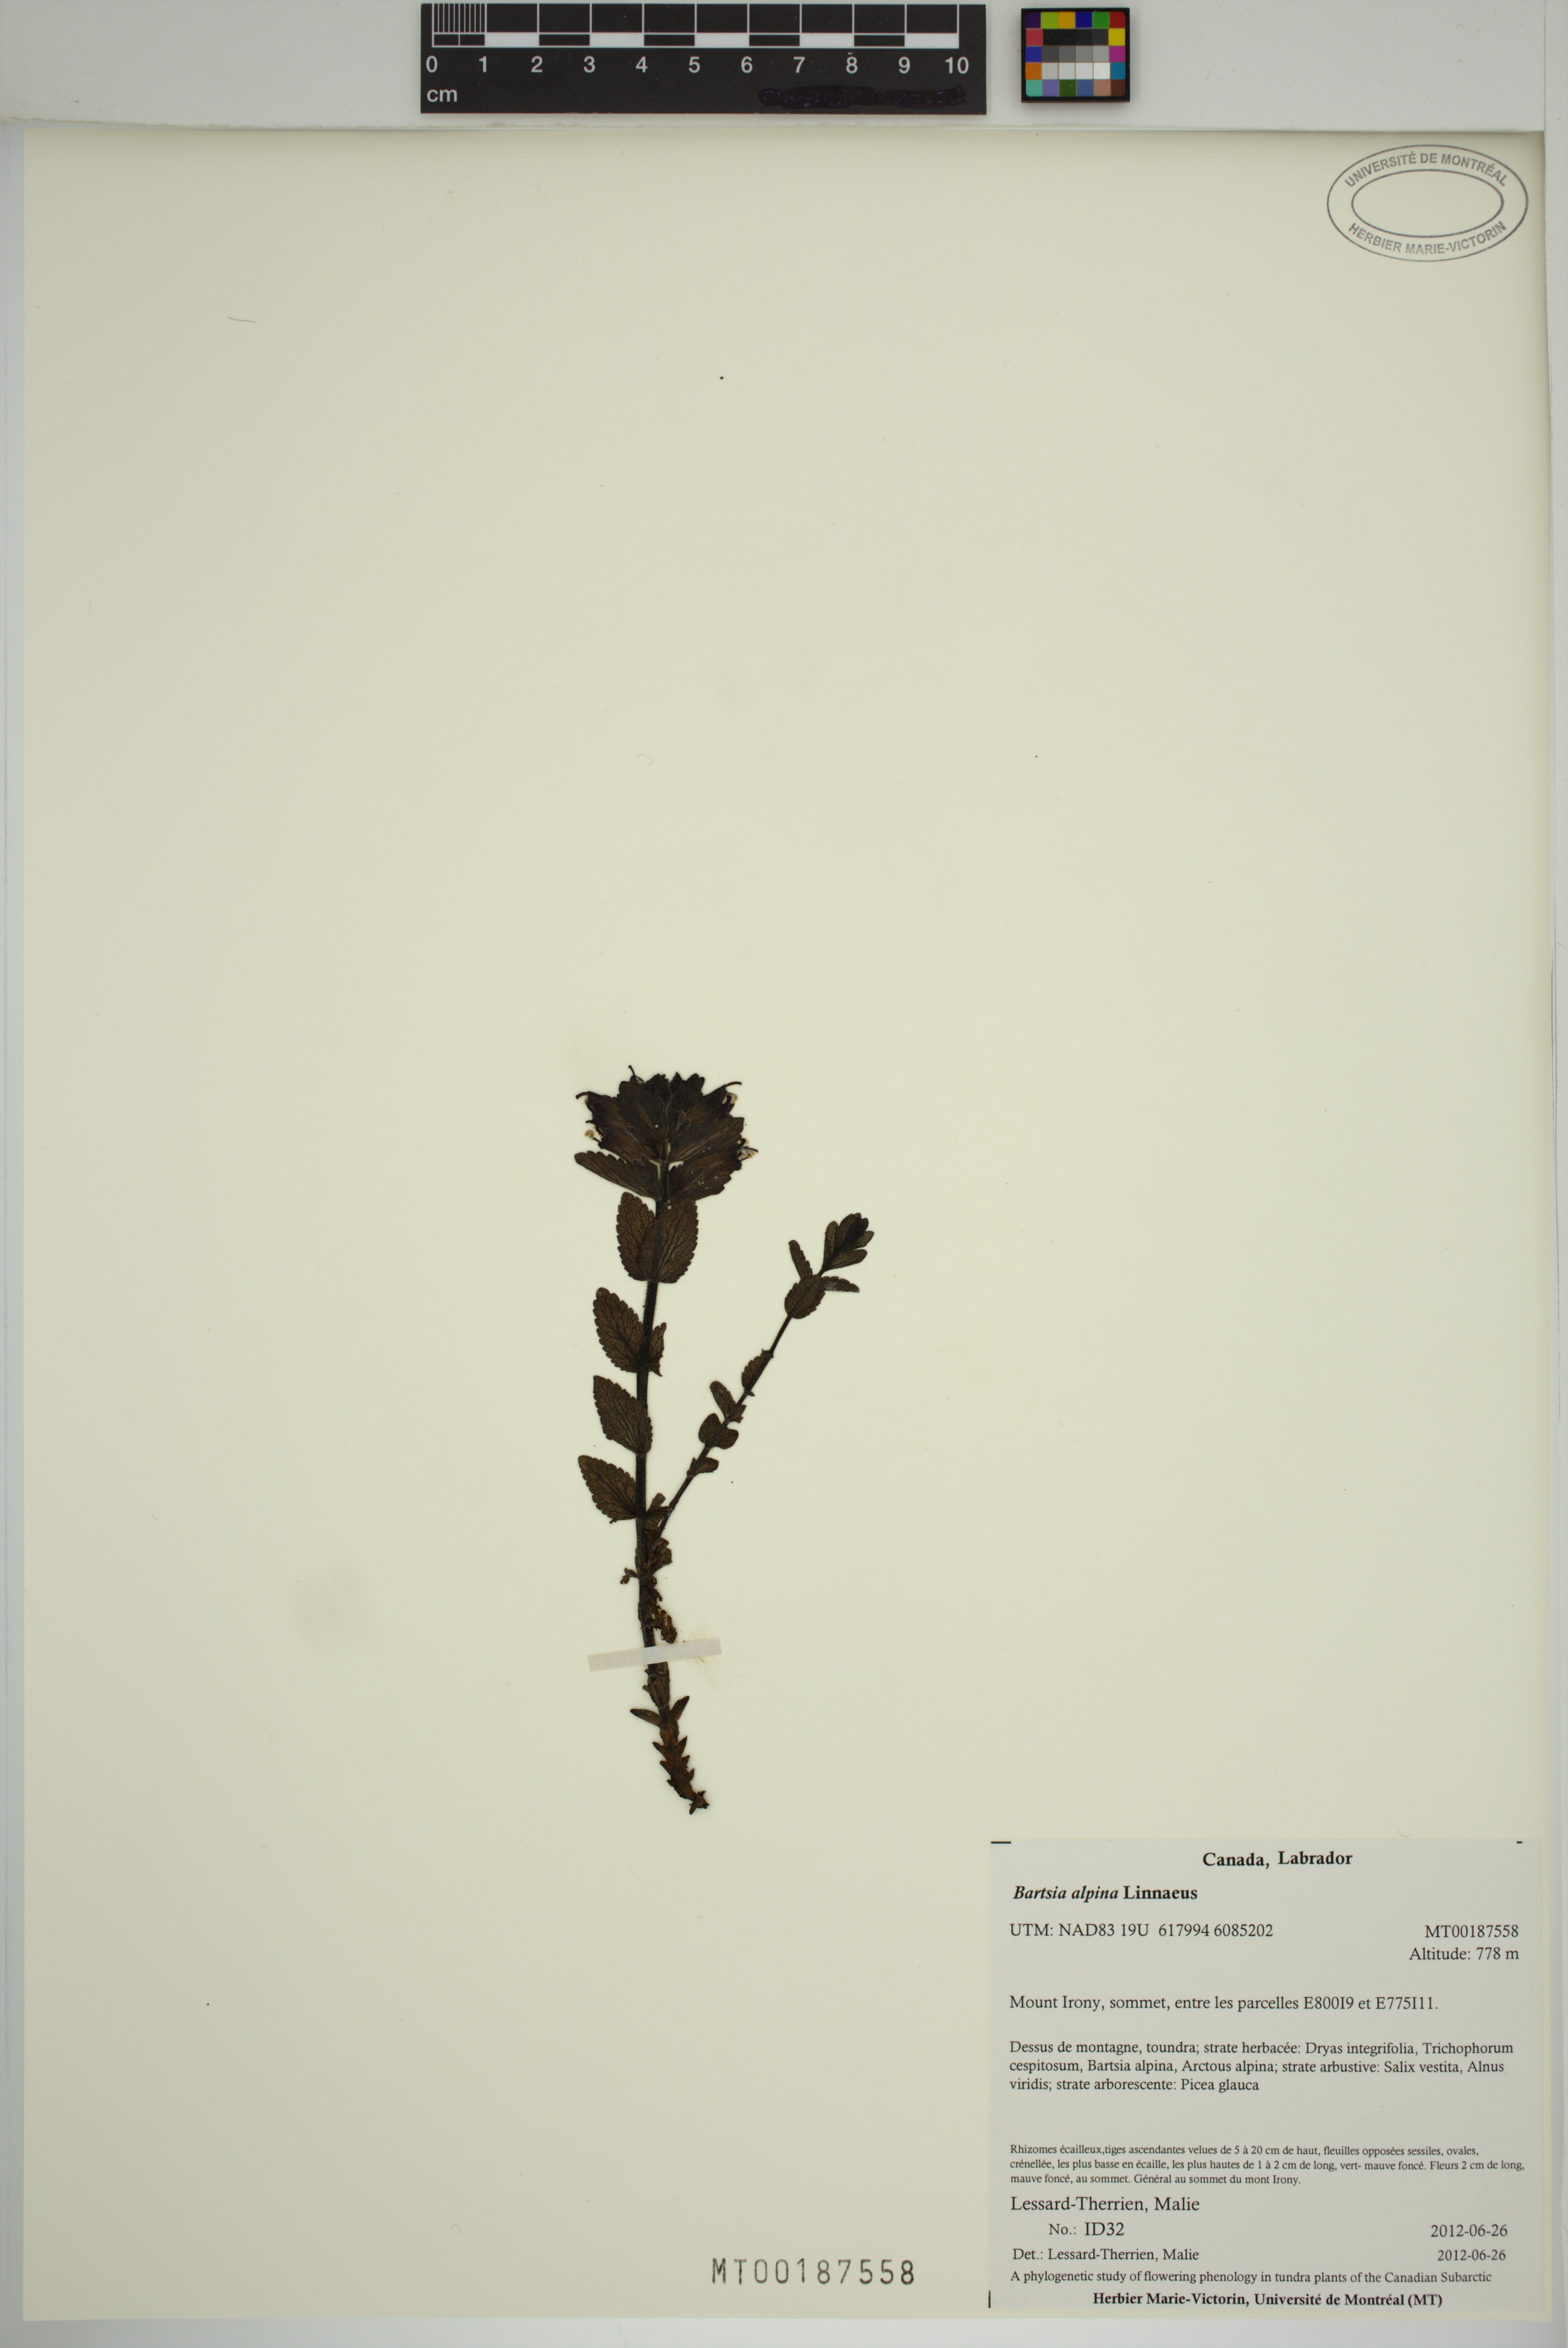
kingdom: Plantae
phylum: Tracheophyta
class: Magnoliopsida
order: Lamiales
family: Orobanchaceae
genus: Bartsia
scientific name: Bartsia alpina
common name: Alpine bartsia
